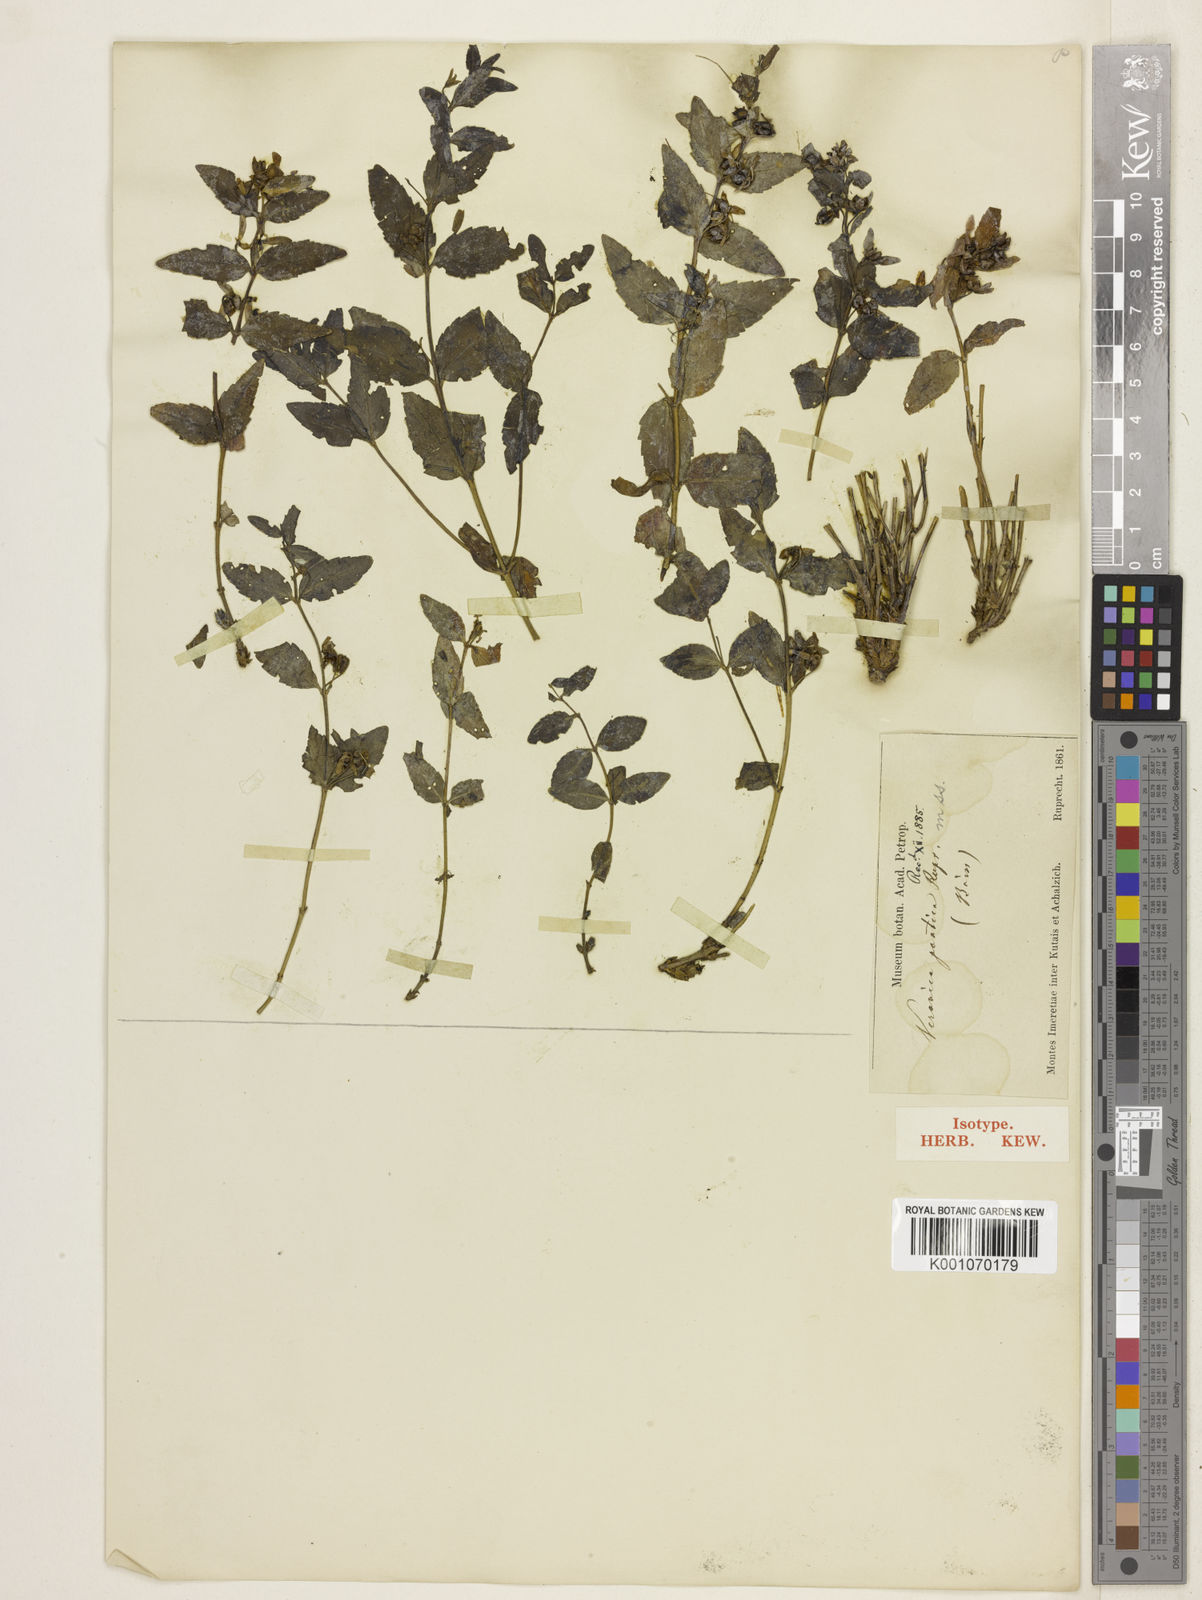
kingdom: Plantae
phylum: Tracheophyta
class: Magnoliopsida
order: Lamiales
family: Plantaginaceae
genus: Veronica
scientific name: Veronica pontica
